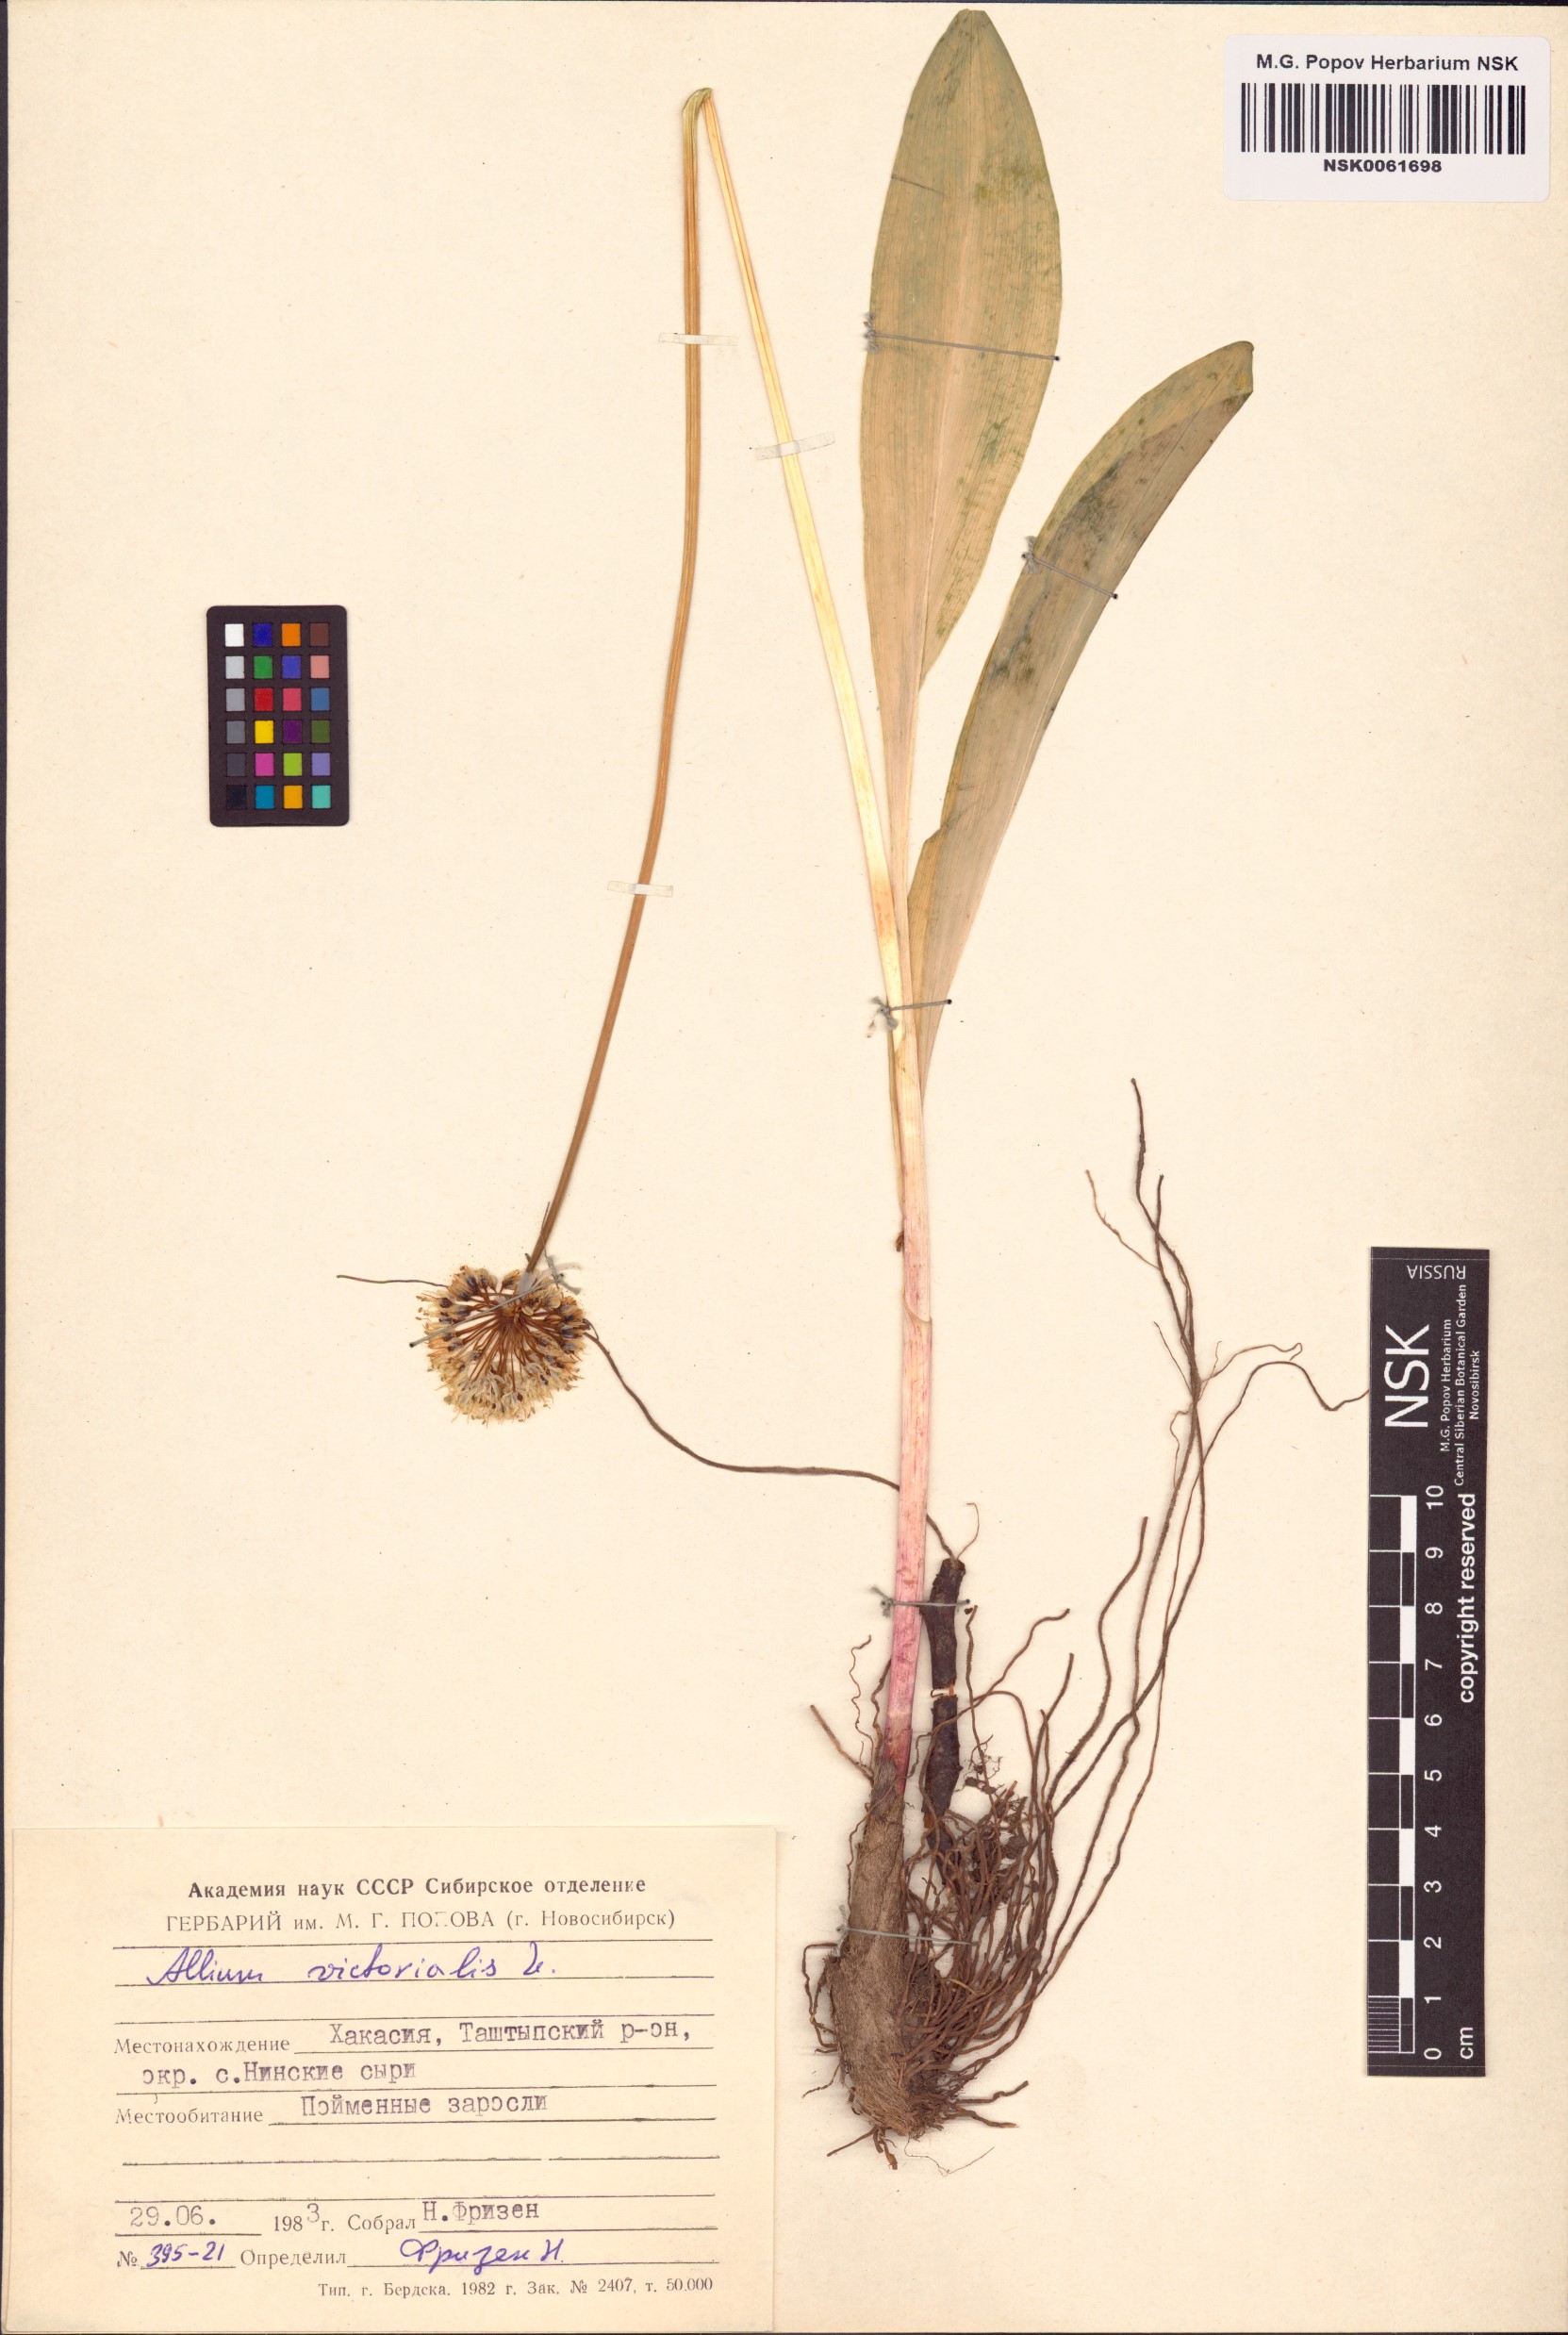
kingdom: Plantae
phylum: Tracheophyta
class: Liliopsida
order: Asparagales
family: Amaryllidaceae
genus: Allium
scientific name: Allium victorialis
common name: Alpine leek
